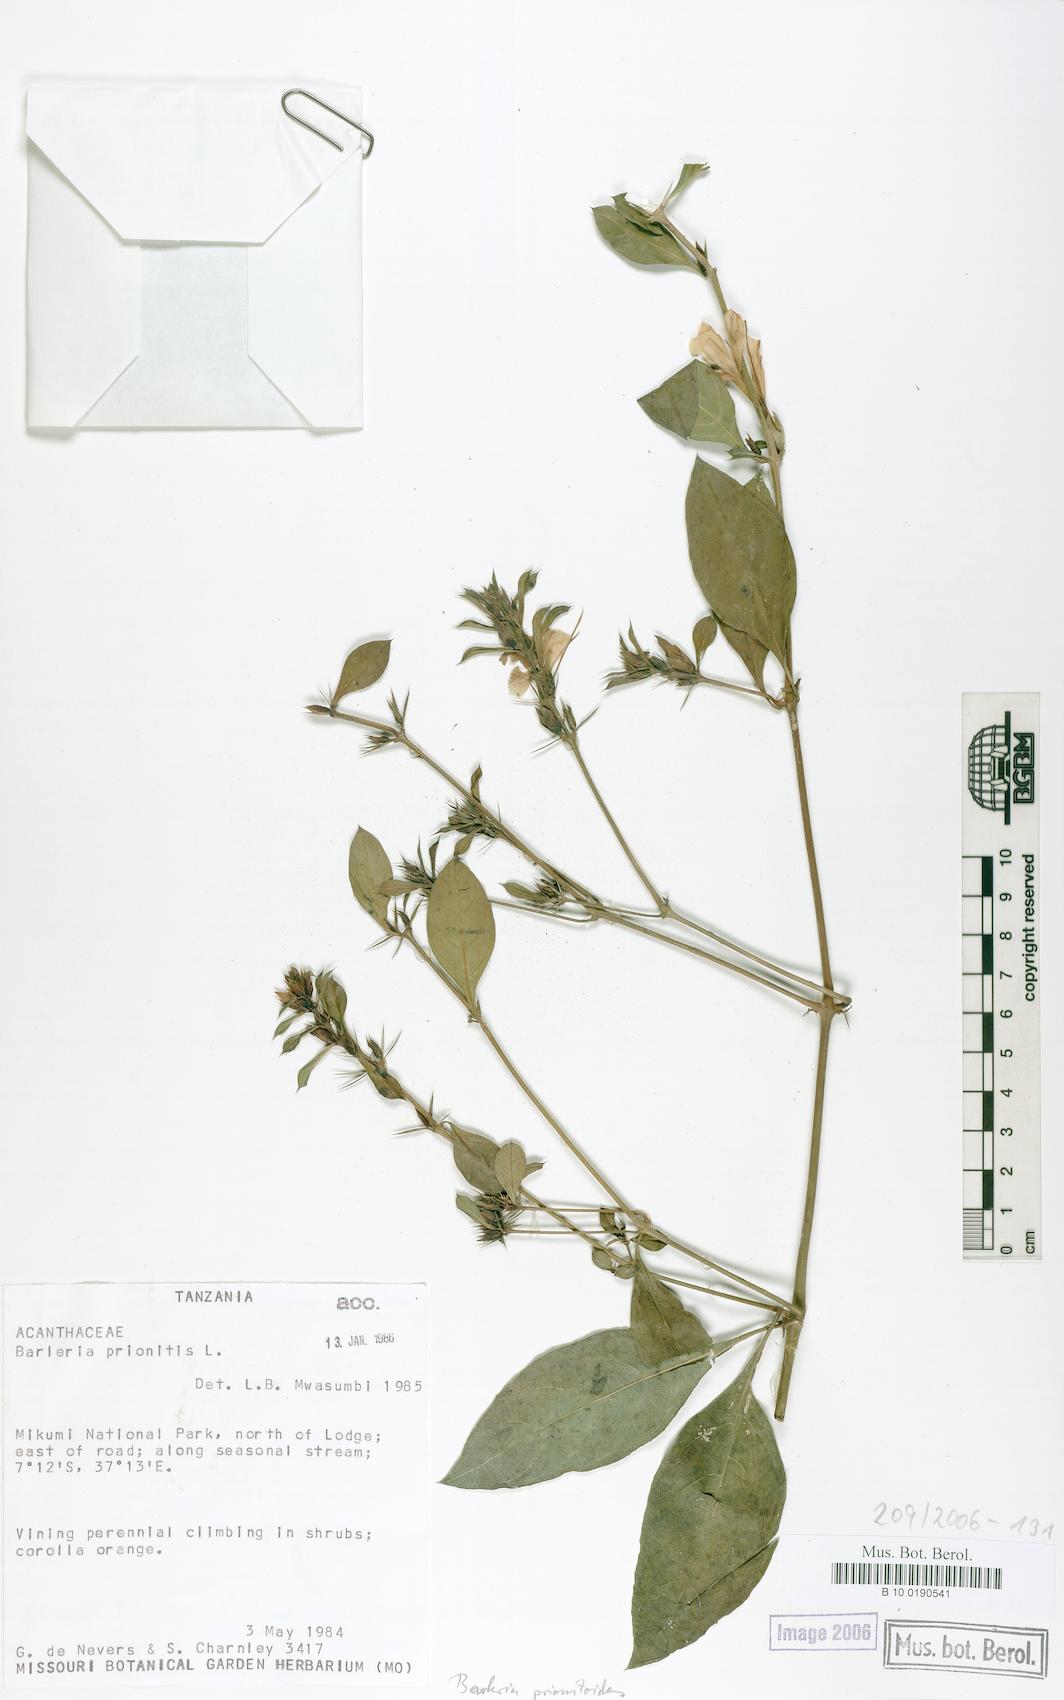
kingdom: Plantae
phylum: Tracheophyta
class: Magnoliopsida
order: Lamiales
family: Acanthaceae
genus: Barleria
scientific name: Barleria prionitis
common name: Barleria
